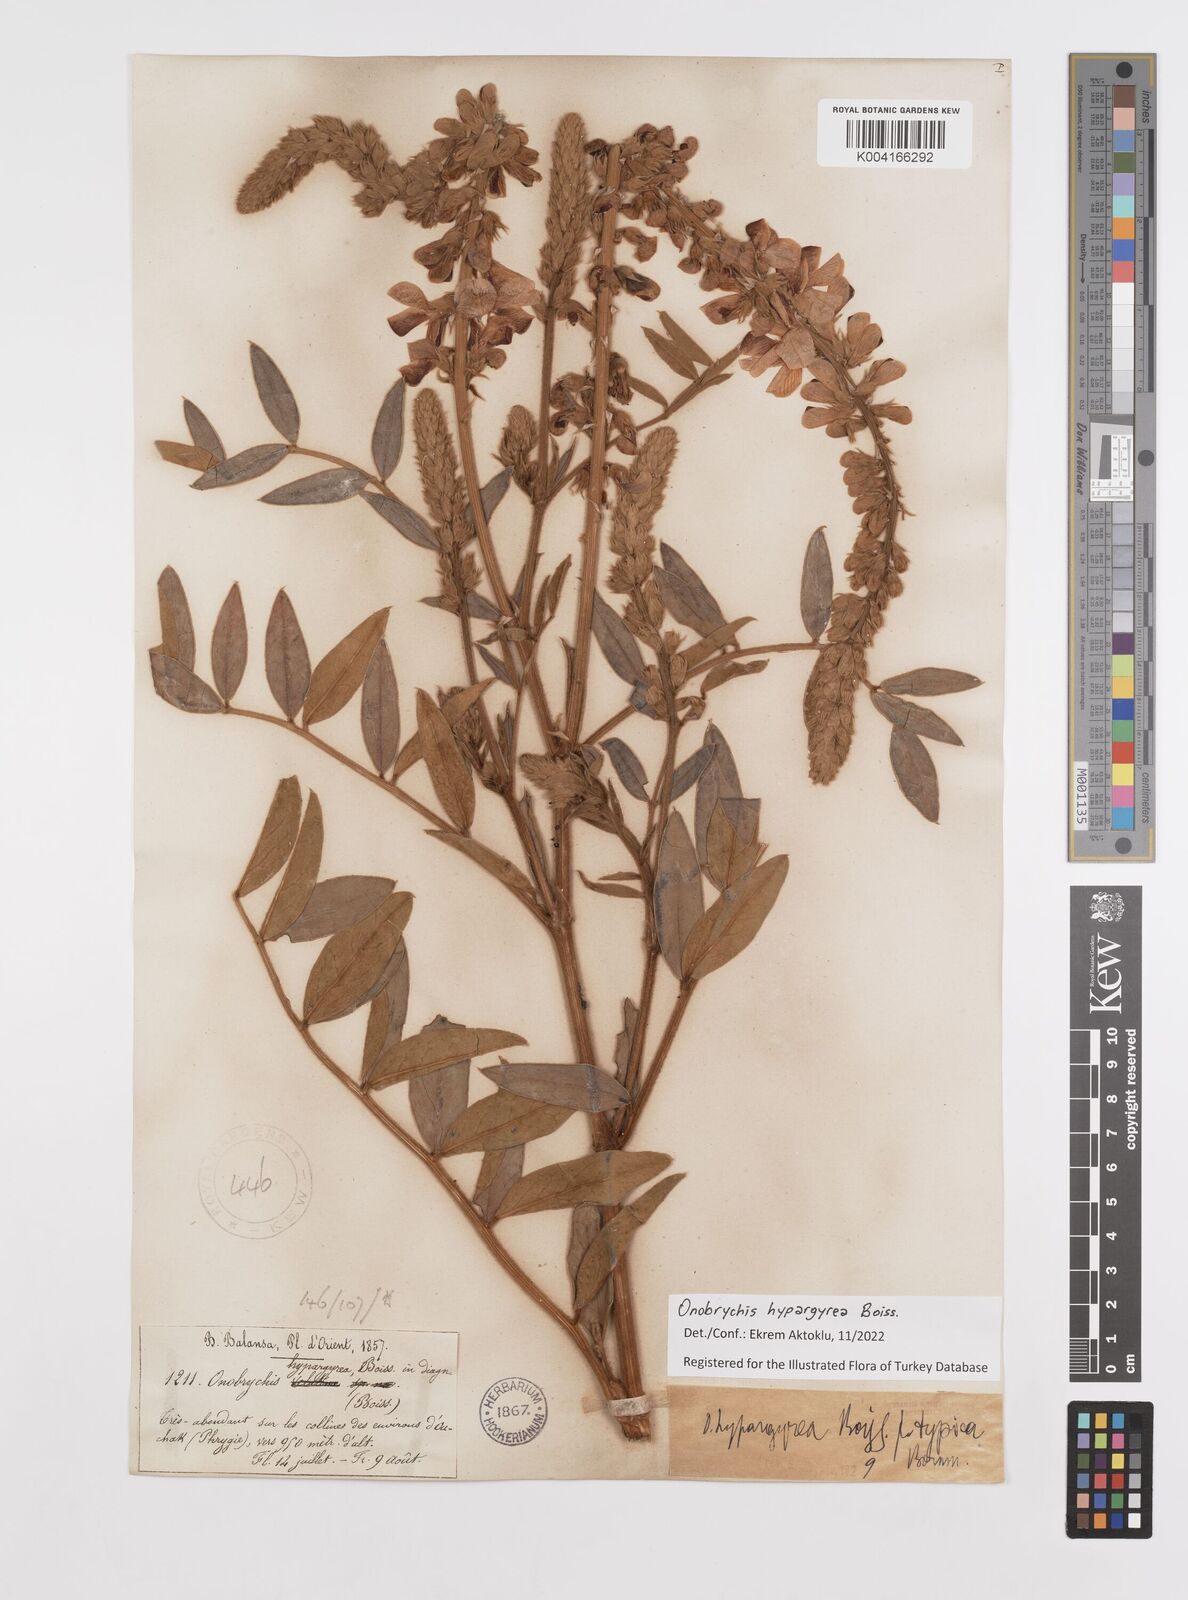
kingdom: Plantae
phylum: Tracheophyta
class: Magnoliopsida
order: Fabales
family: Fabaceae
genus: Onobrychis
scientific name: Onobrychis hypargyrea
